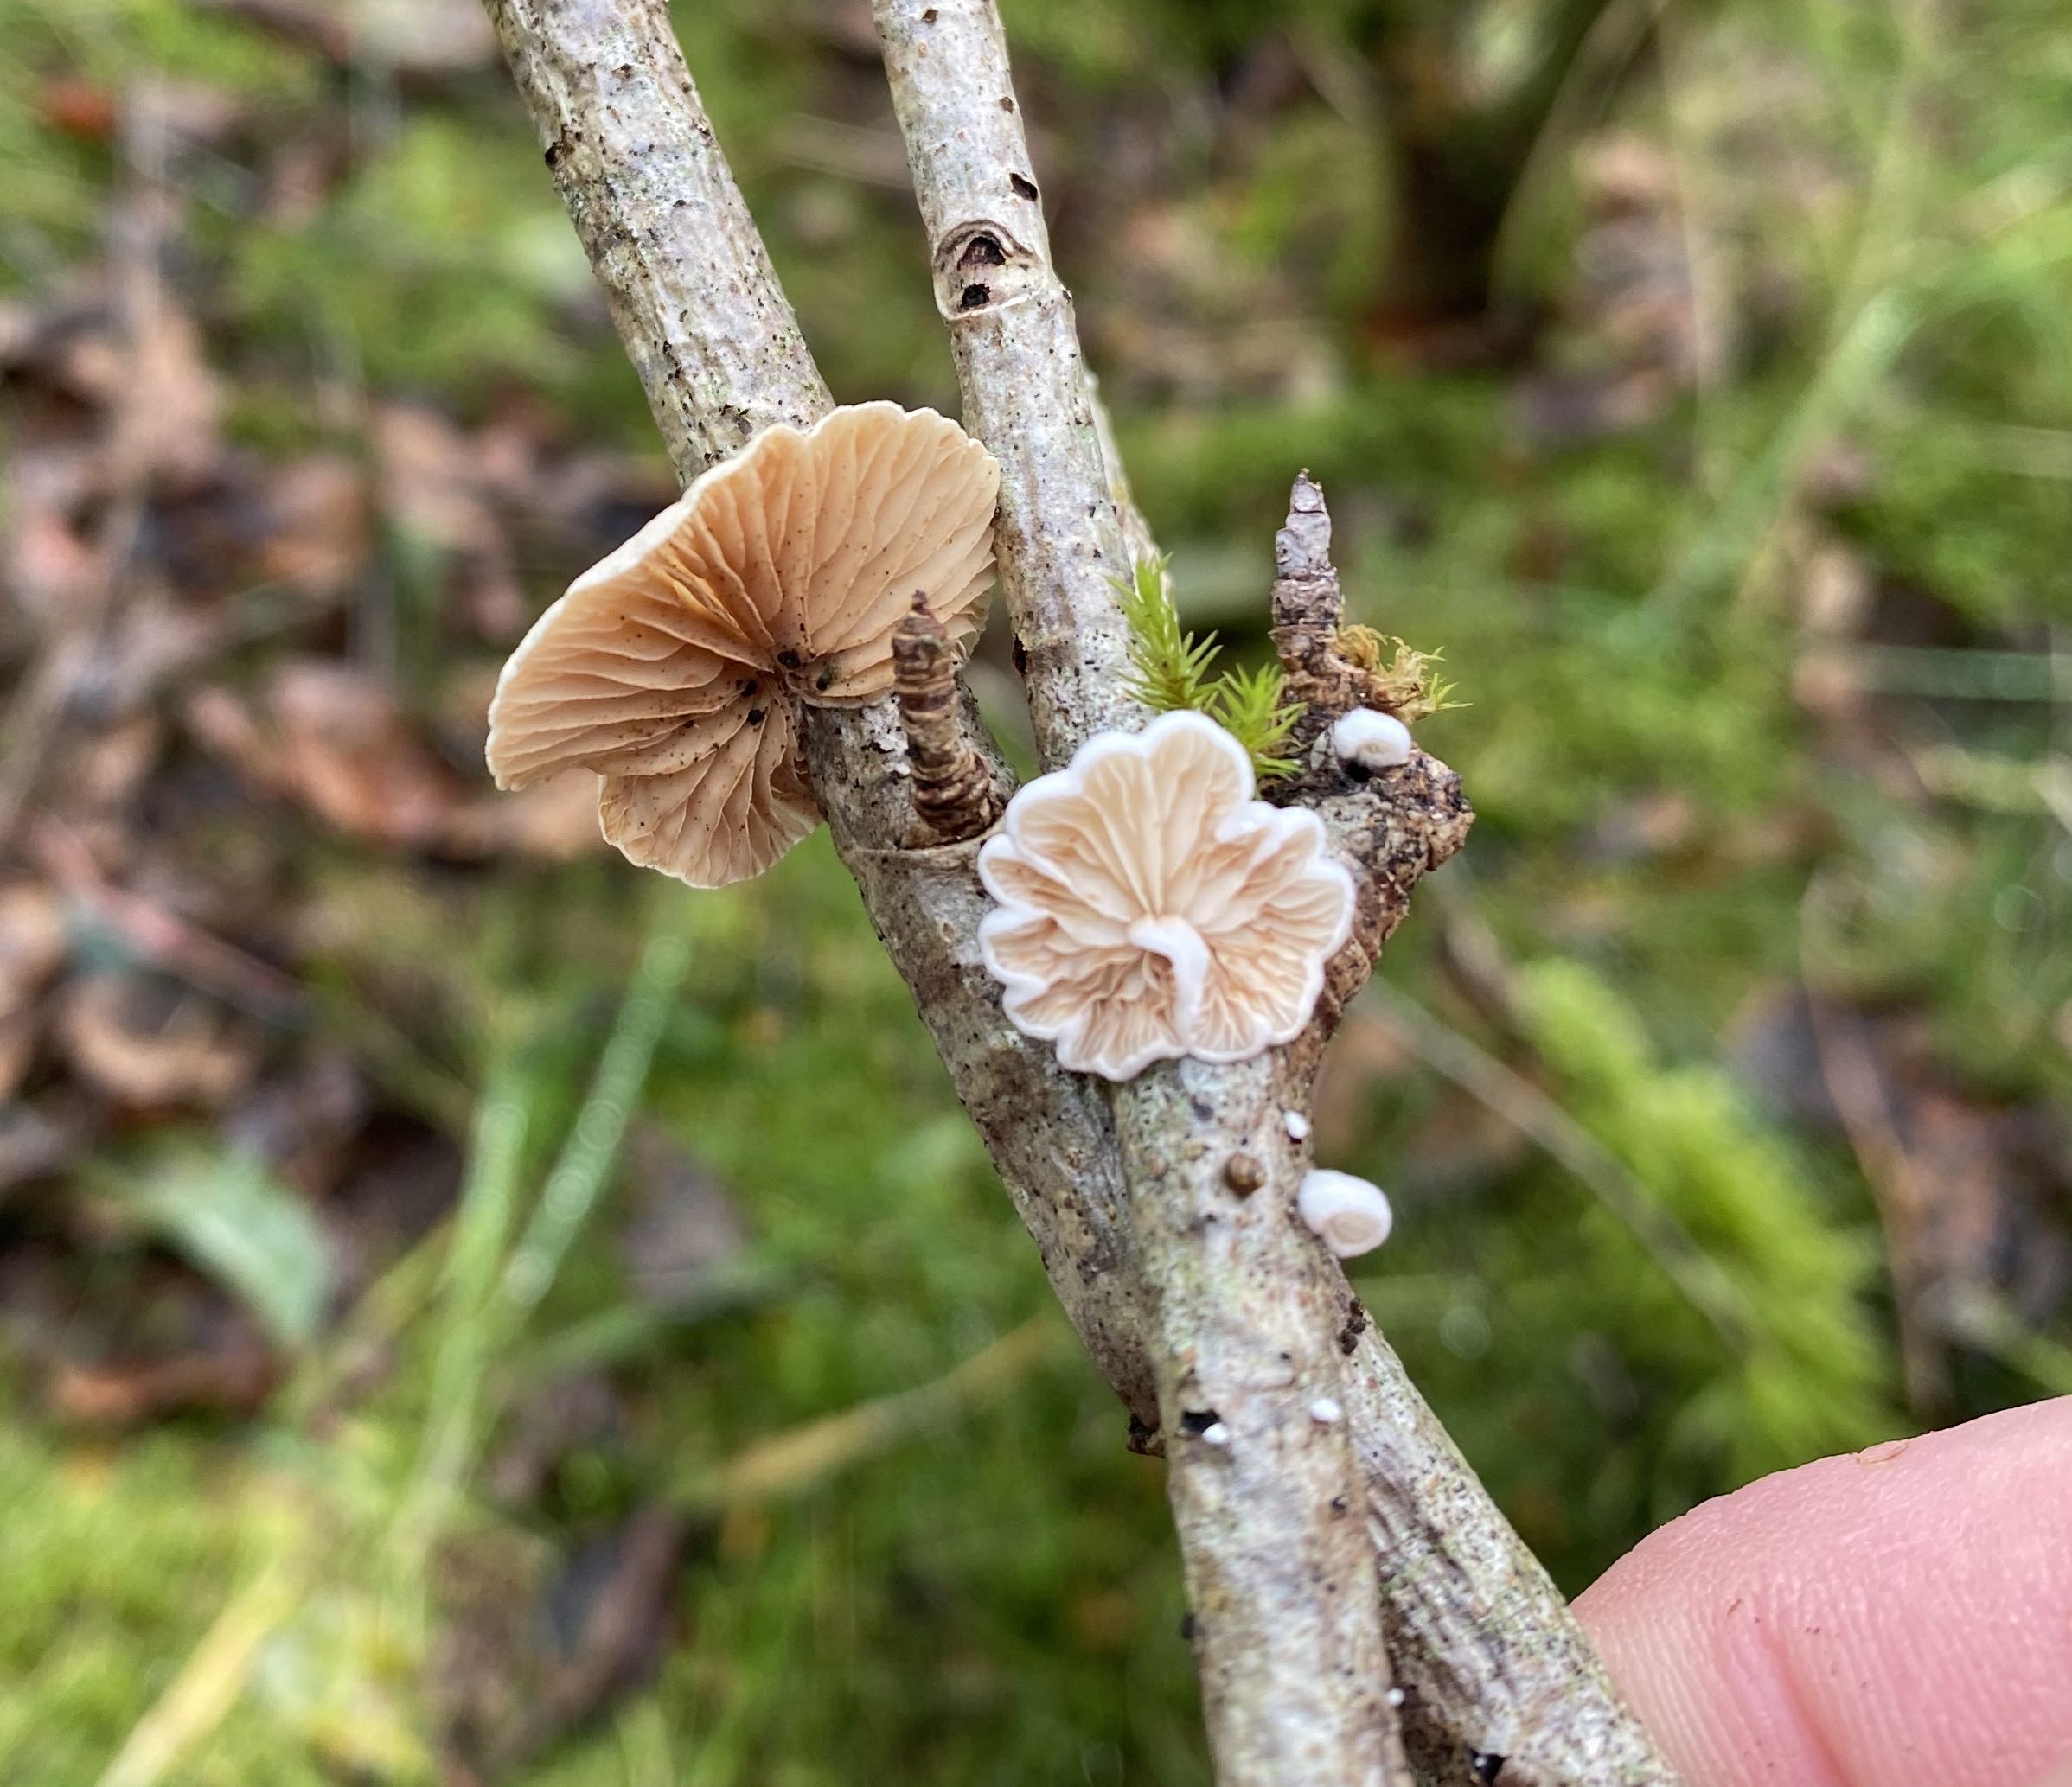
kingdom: Fungi
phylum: Basidiomycota
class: Agaricomycetes
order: Agaricales
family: Crepidotaceae
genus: Crepidotus
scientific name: Crepidotus
